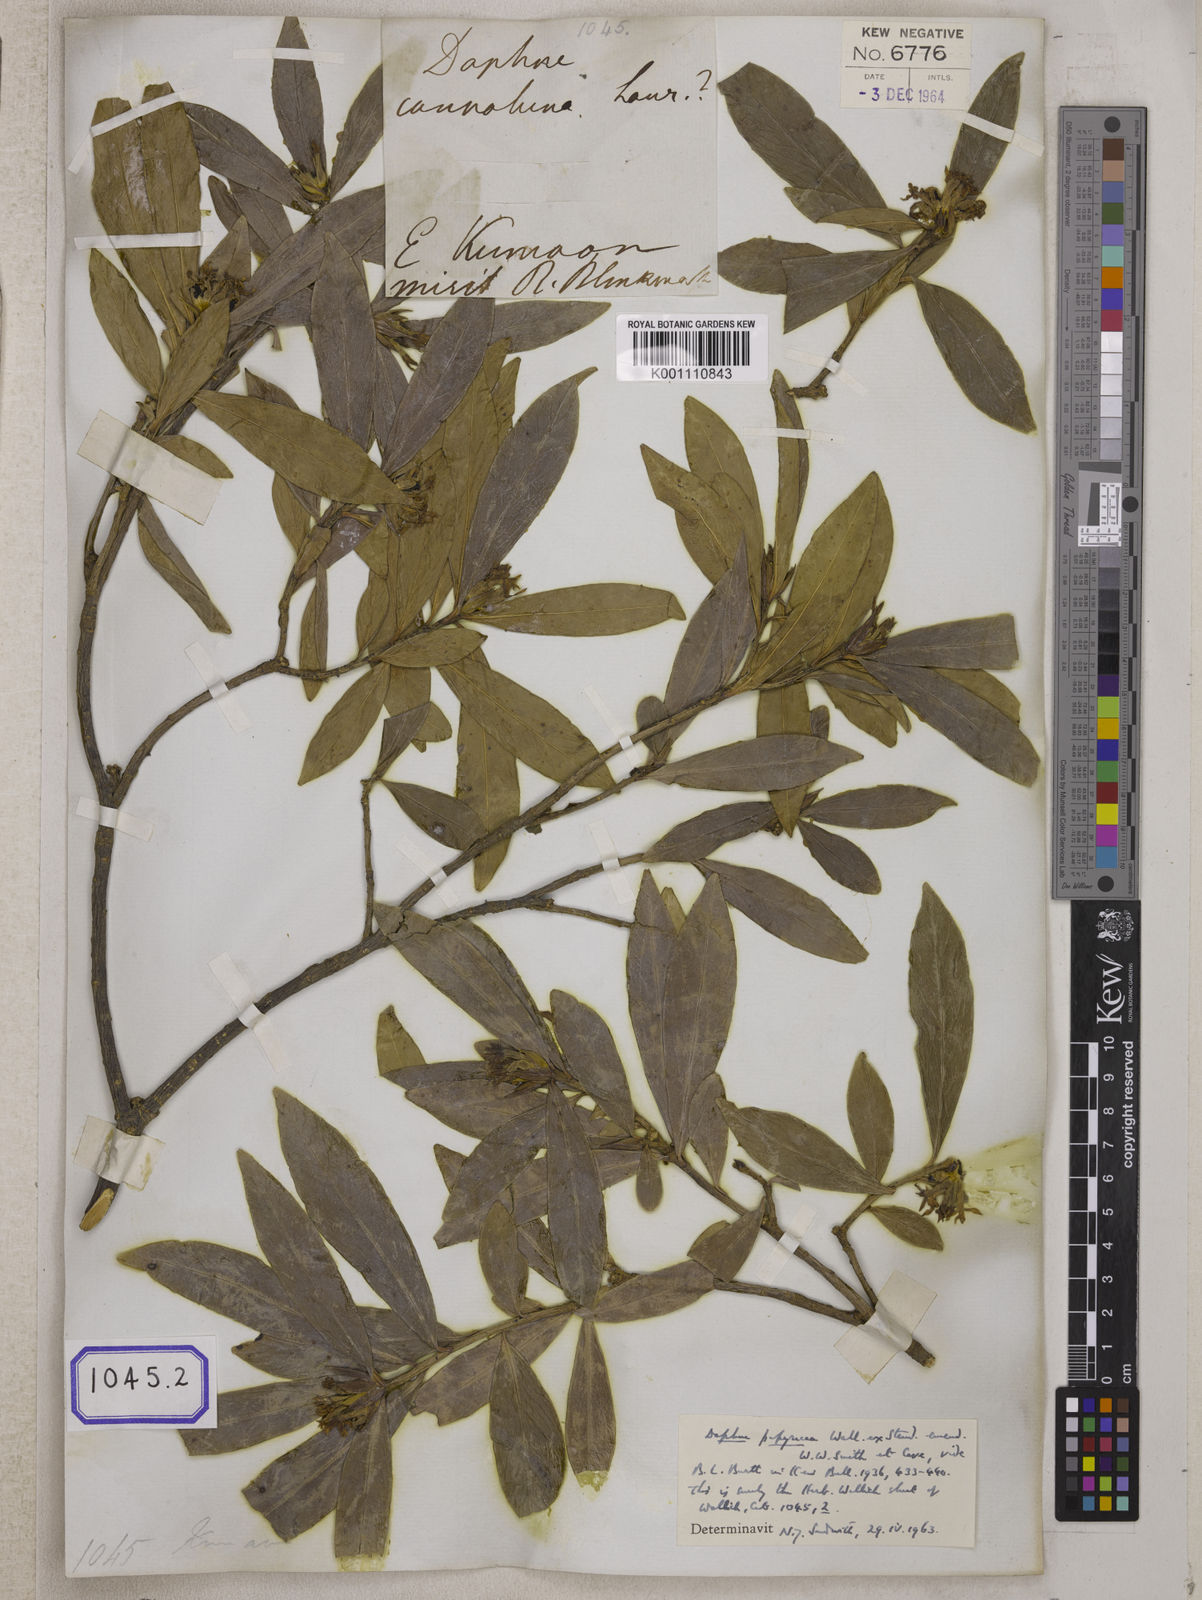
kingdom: Plantae
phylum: Tracheophyta
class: Magnoliopsida
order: Malvales
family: Thymelaeaceae
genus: Wikstroemia
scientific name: Wikstroemia indica
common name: Tiebush
